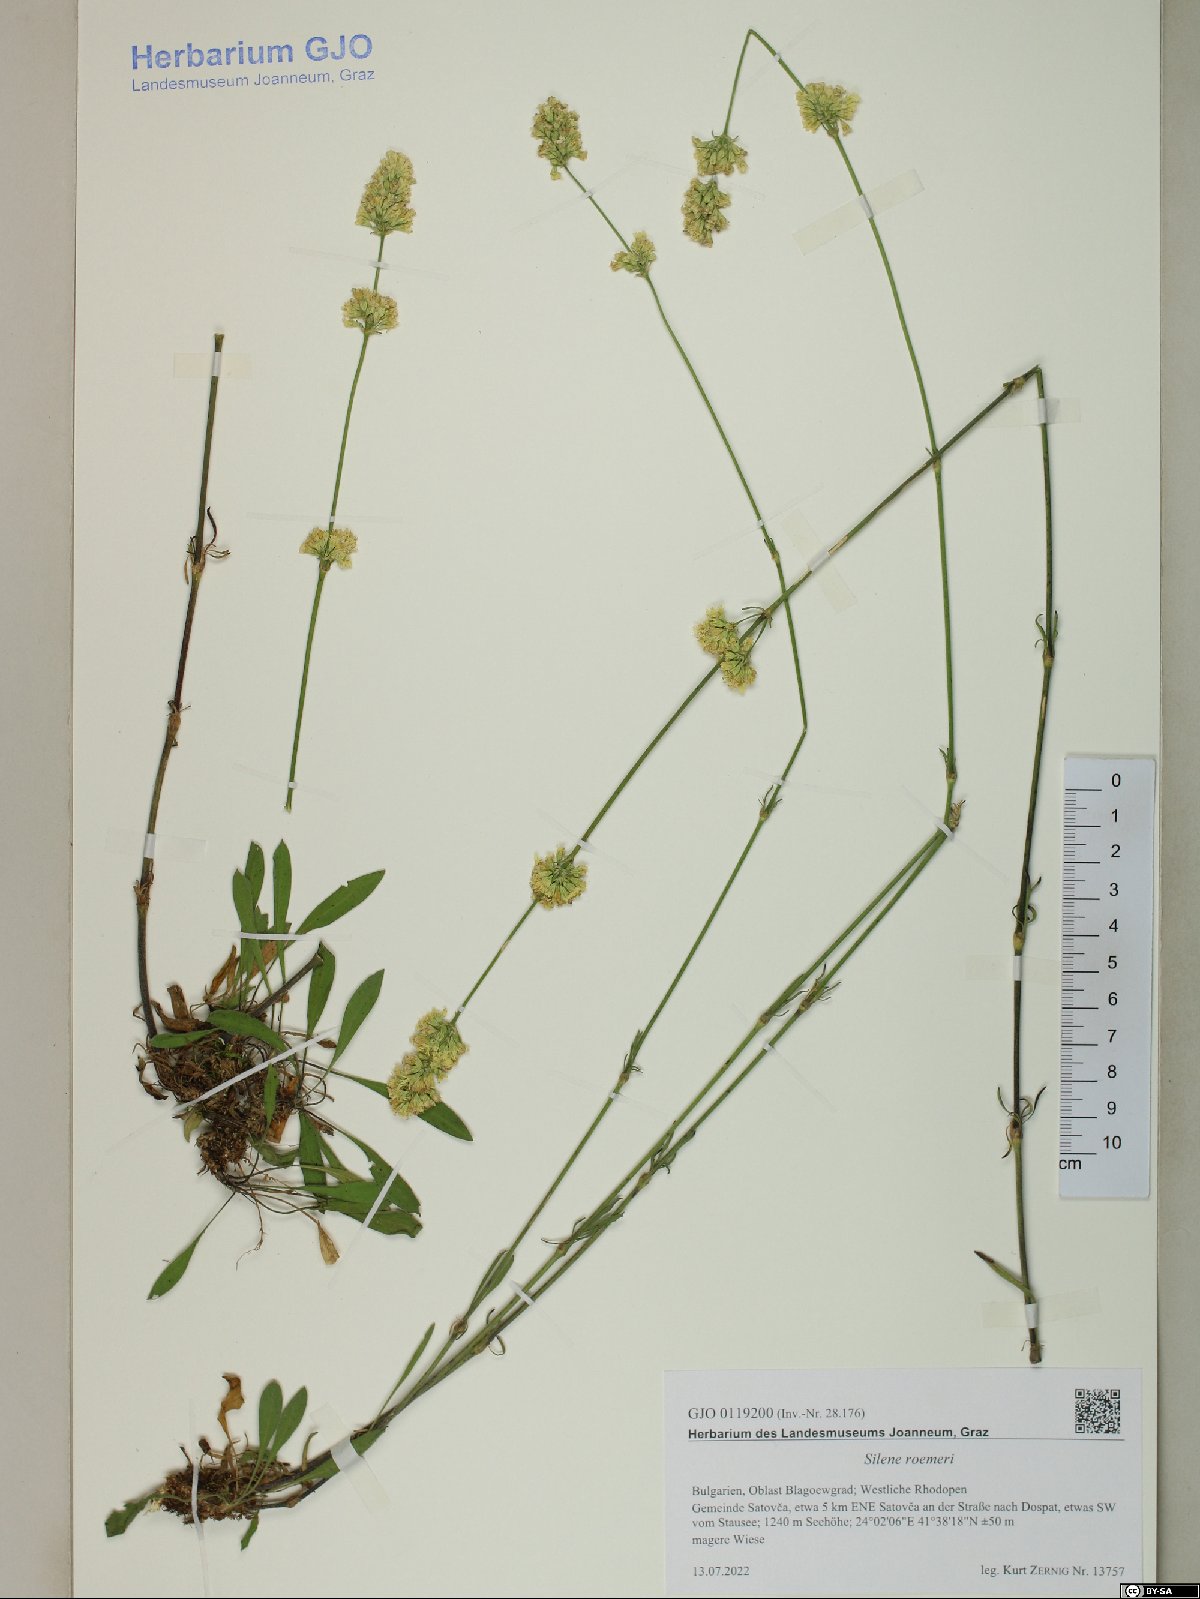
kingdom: Plantae
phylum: Tracheophyta
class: Magnoliopsida
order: Caryophyllales
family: Caryophyllaceae
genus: Silene
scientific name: Silene roemeri
